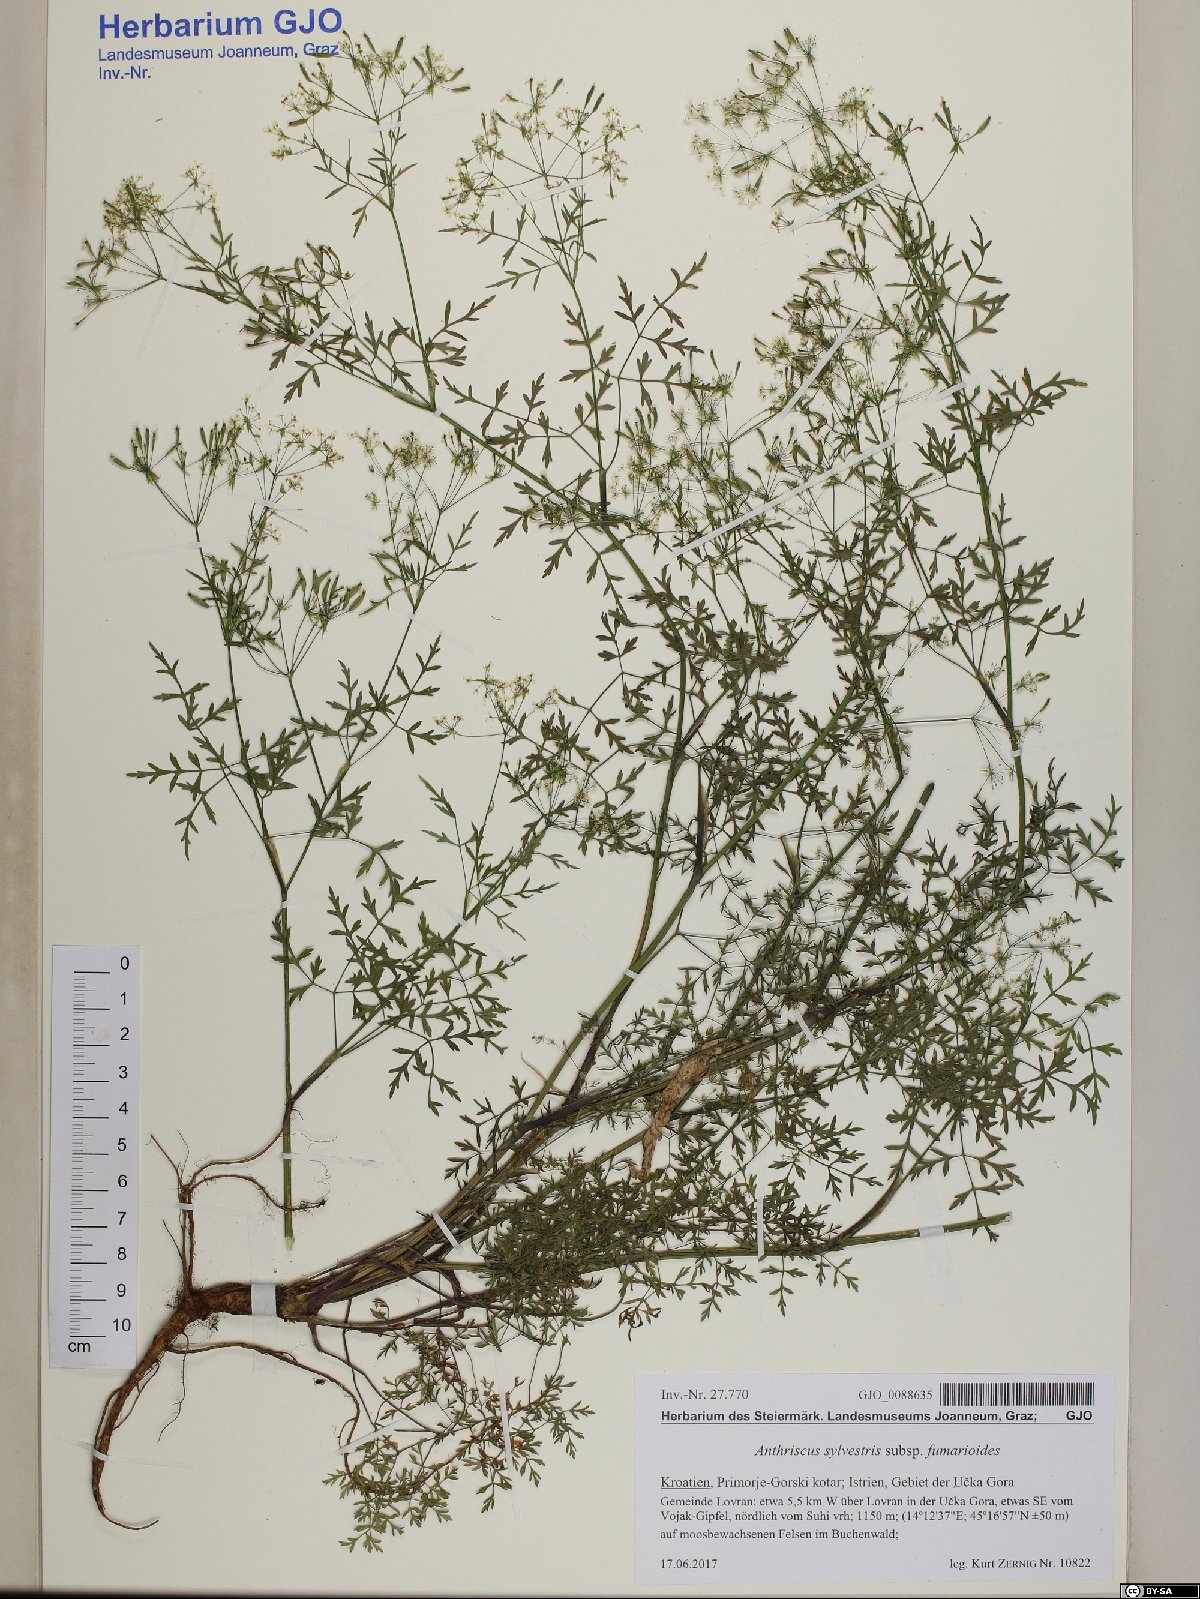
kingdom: Plantae
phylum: Tracheophyta
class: Magnoliopsida
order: Apiales
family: Apiaceae
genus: Anthriscus
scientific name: Anthriscus fumarioides
